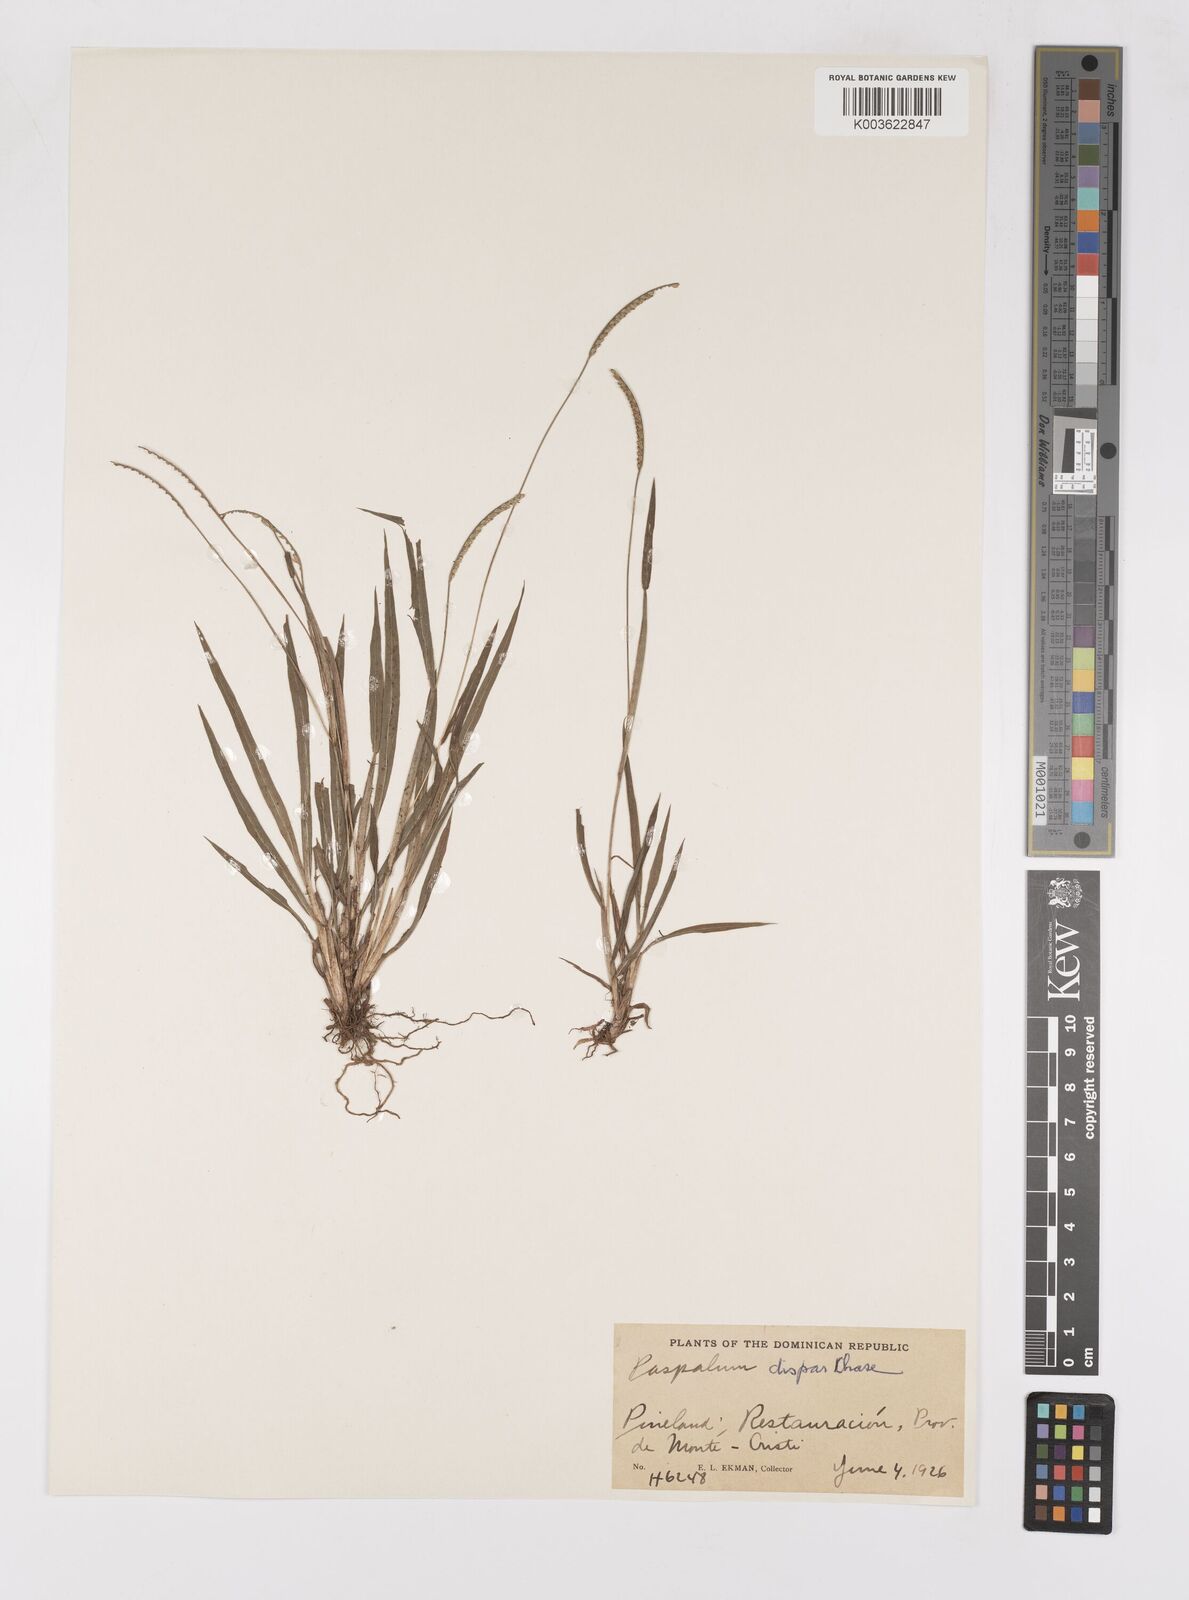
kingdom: Plantae
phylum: Tracheophyta
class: Liliopsida
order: Poales
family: Poaceae
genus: Paspalum
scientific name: Paspalum dispar
